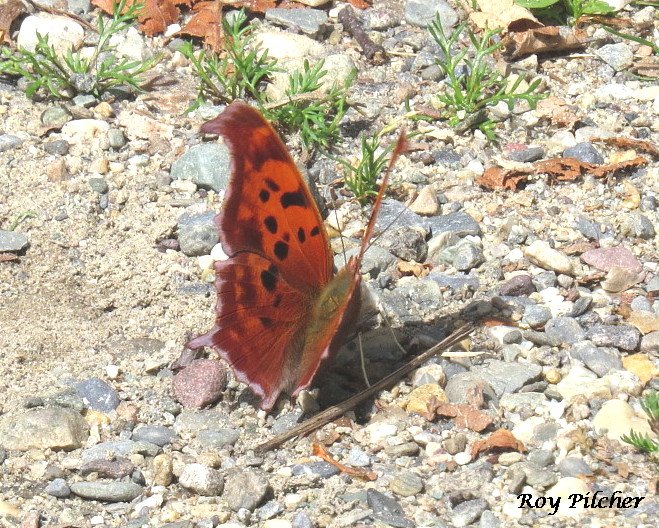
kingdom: Animalia
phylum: Arthropoda
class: Insecta
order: Lepidoptera
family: Nymphalidae
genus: Polygonia
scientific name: Polygonia interrogationis
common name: Question Mark
